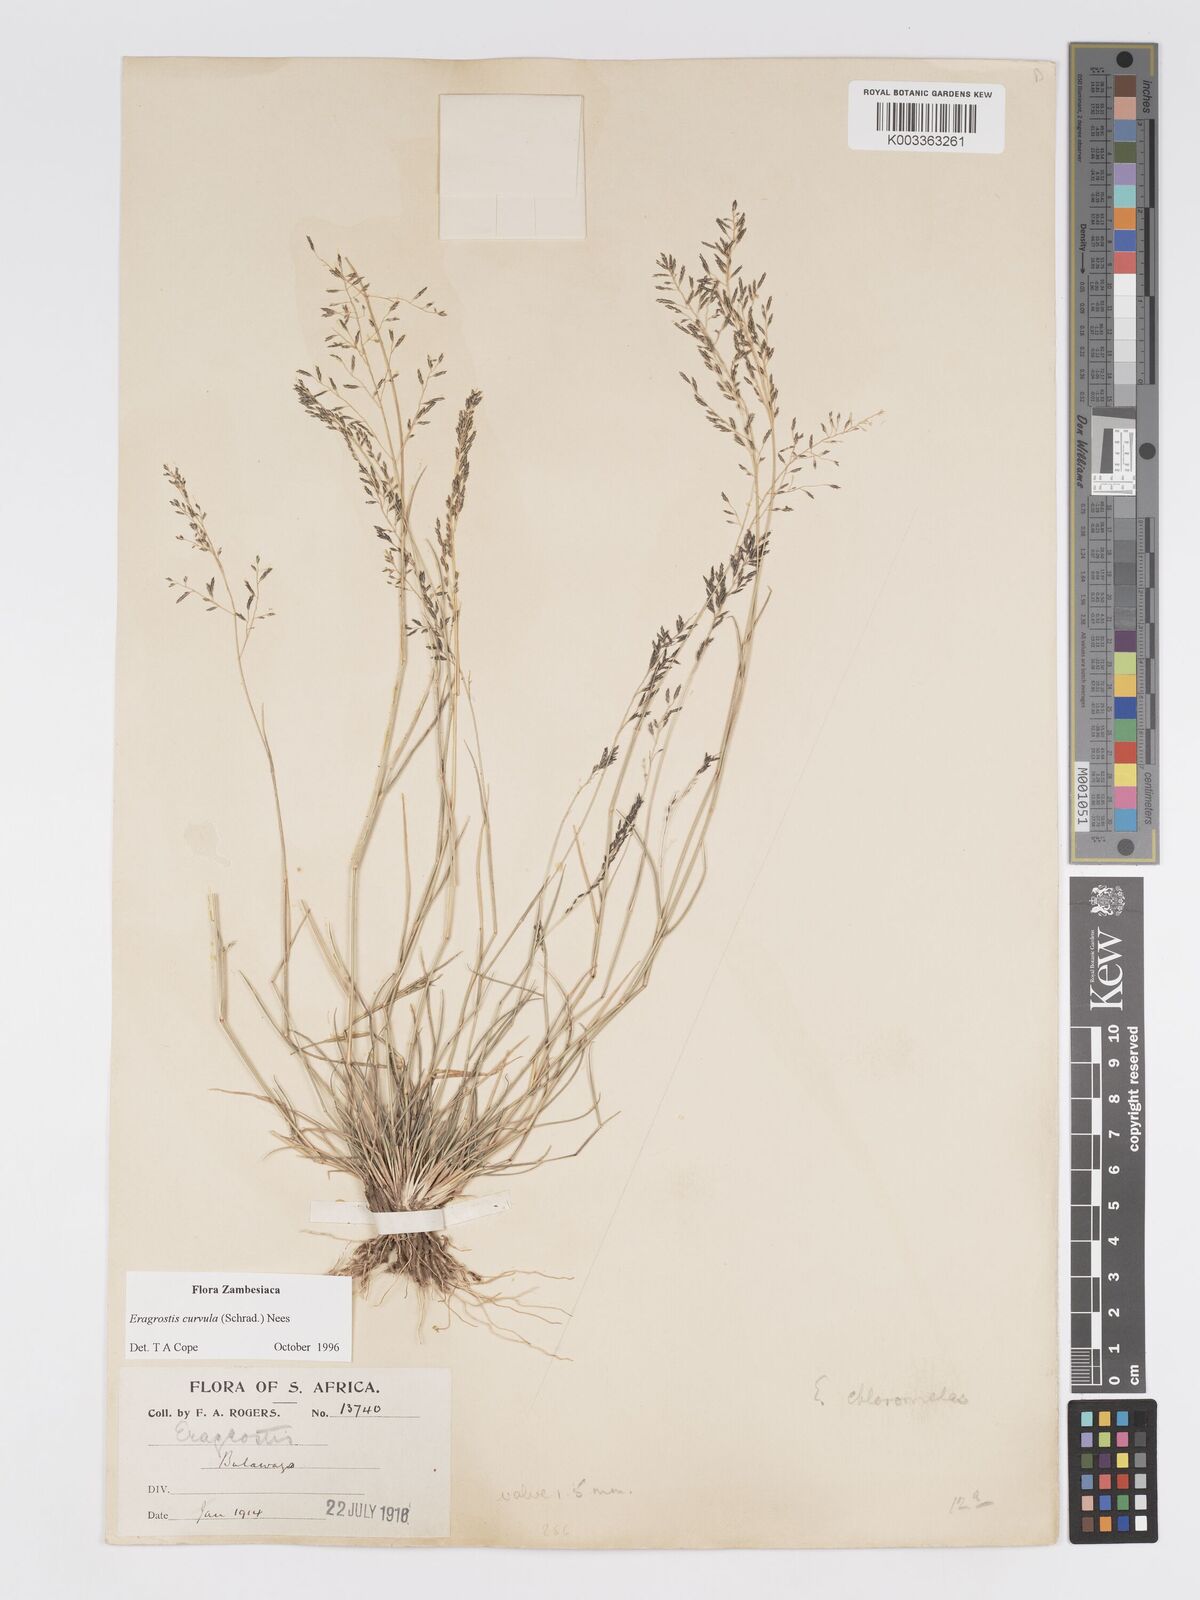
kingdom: Plantae
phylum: Tracheophyta
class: Liliopsida
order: Poales
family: Poaceae
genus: Eragrostis
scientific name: Eragrostis curvula
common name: African love-grass
